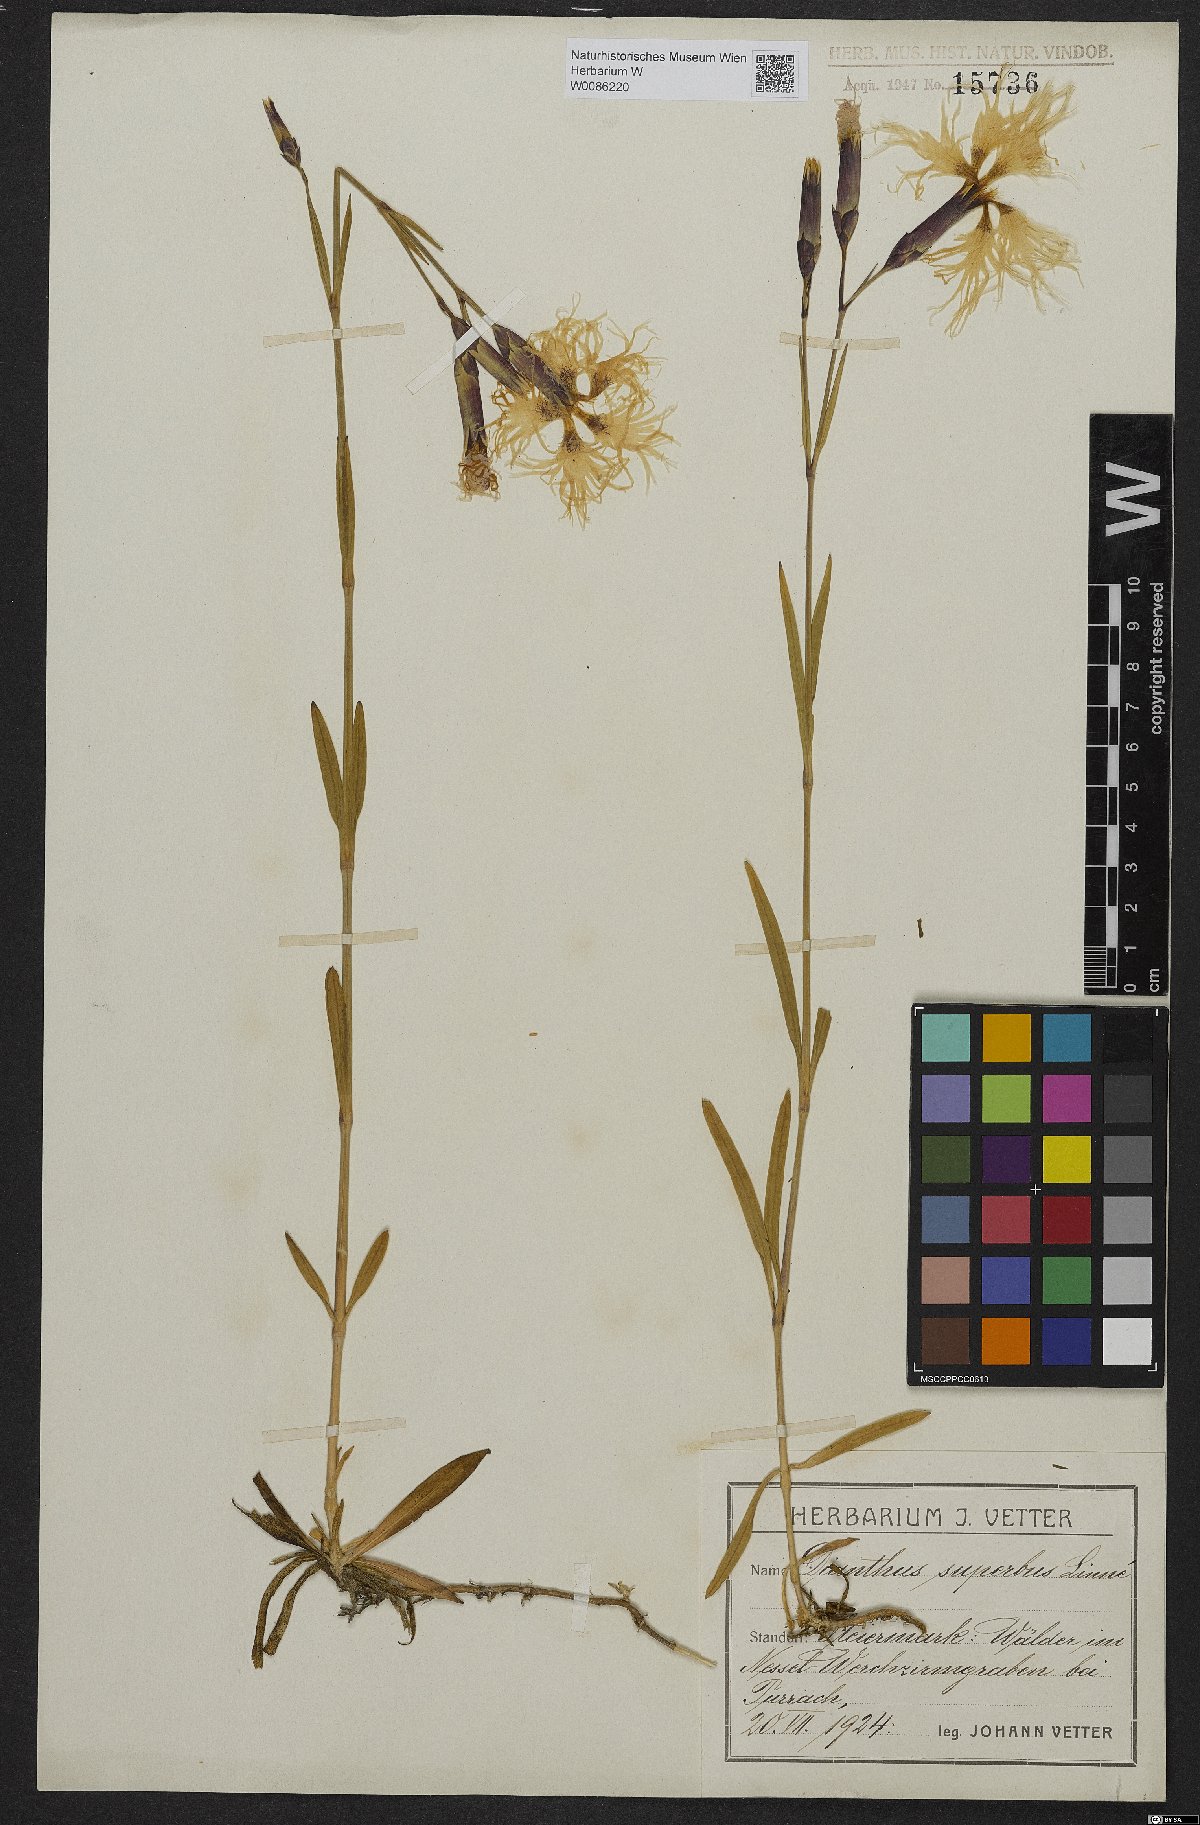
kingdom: Plantae
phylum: Tracheophyta
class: Magnoliopsida
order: Caryophyllales
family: Caryophyllaceae
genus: Dianthus
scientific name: Dianthus superbus
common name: Fringed pink
